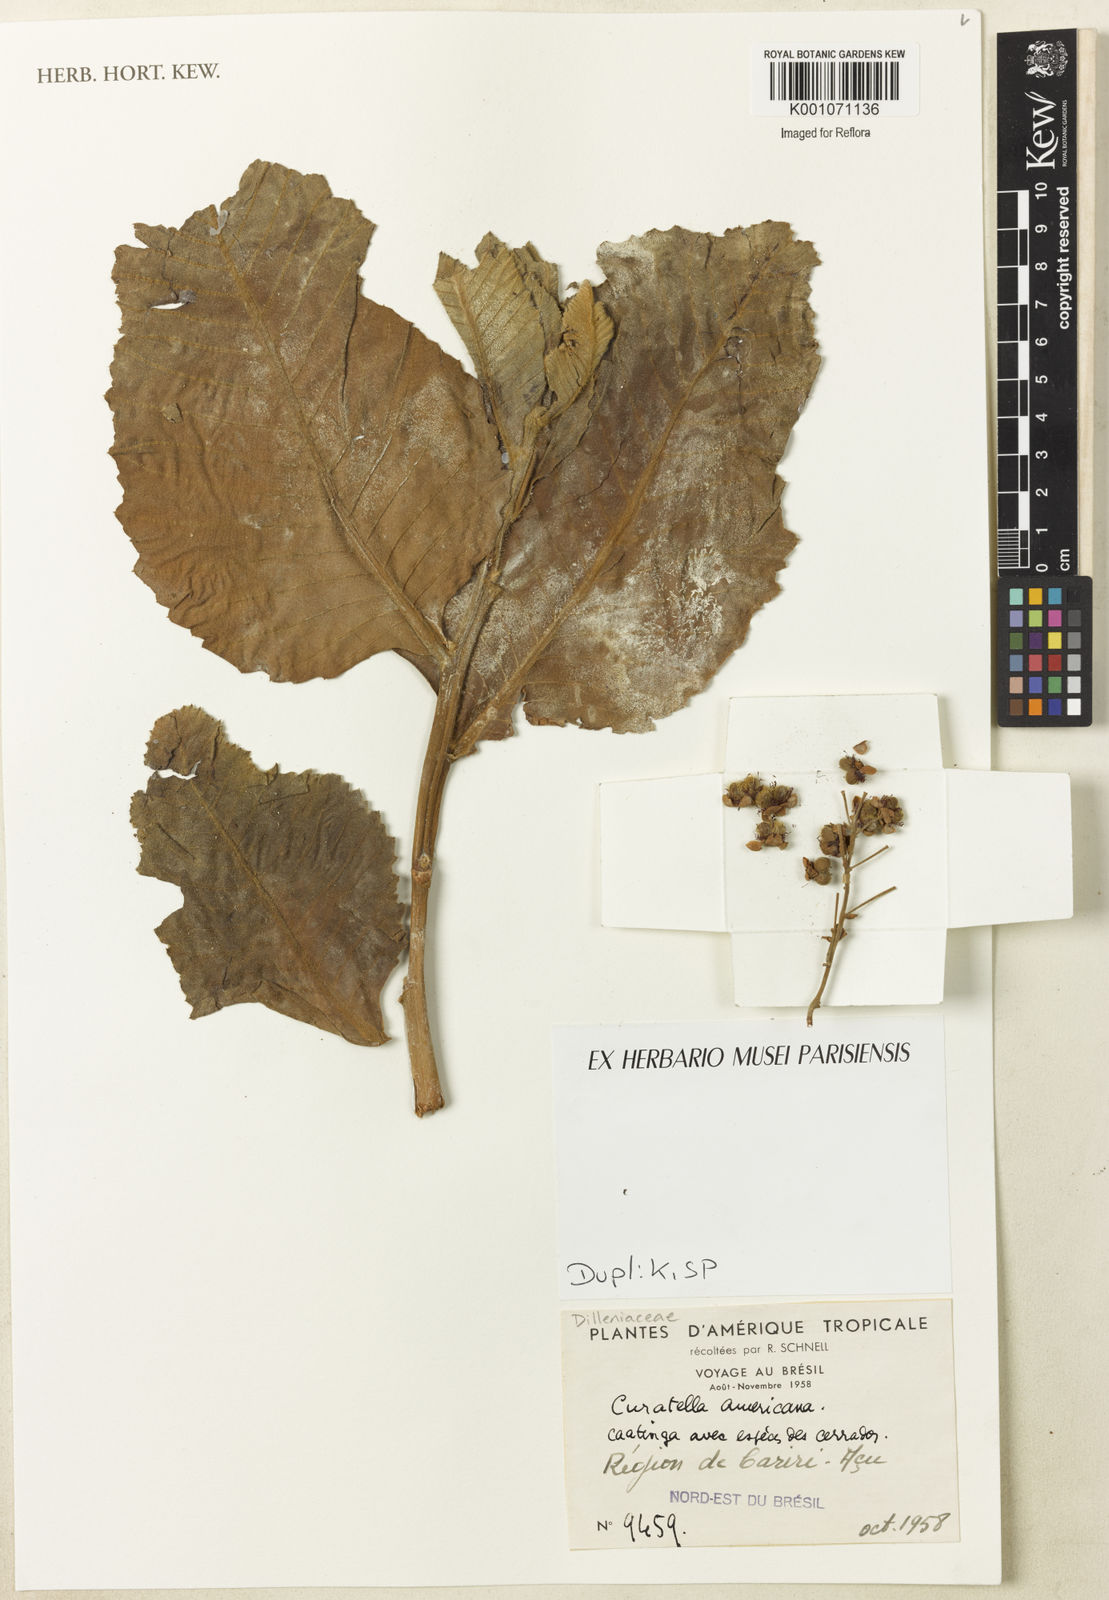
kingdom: Plantae
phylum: Tracheophyta
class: Magnoliopsida
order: Dilleniales
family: Dilleniaceae
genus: Curatella
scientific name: Curatella americana
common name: Sandpaper tree
